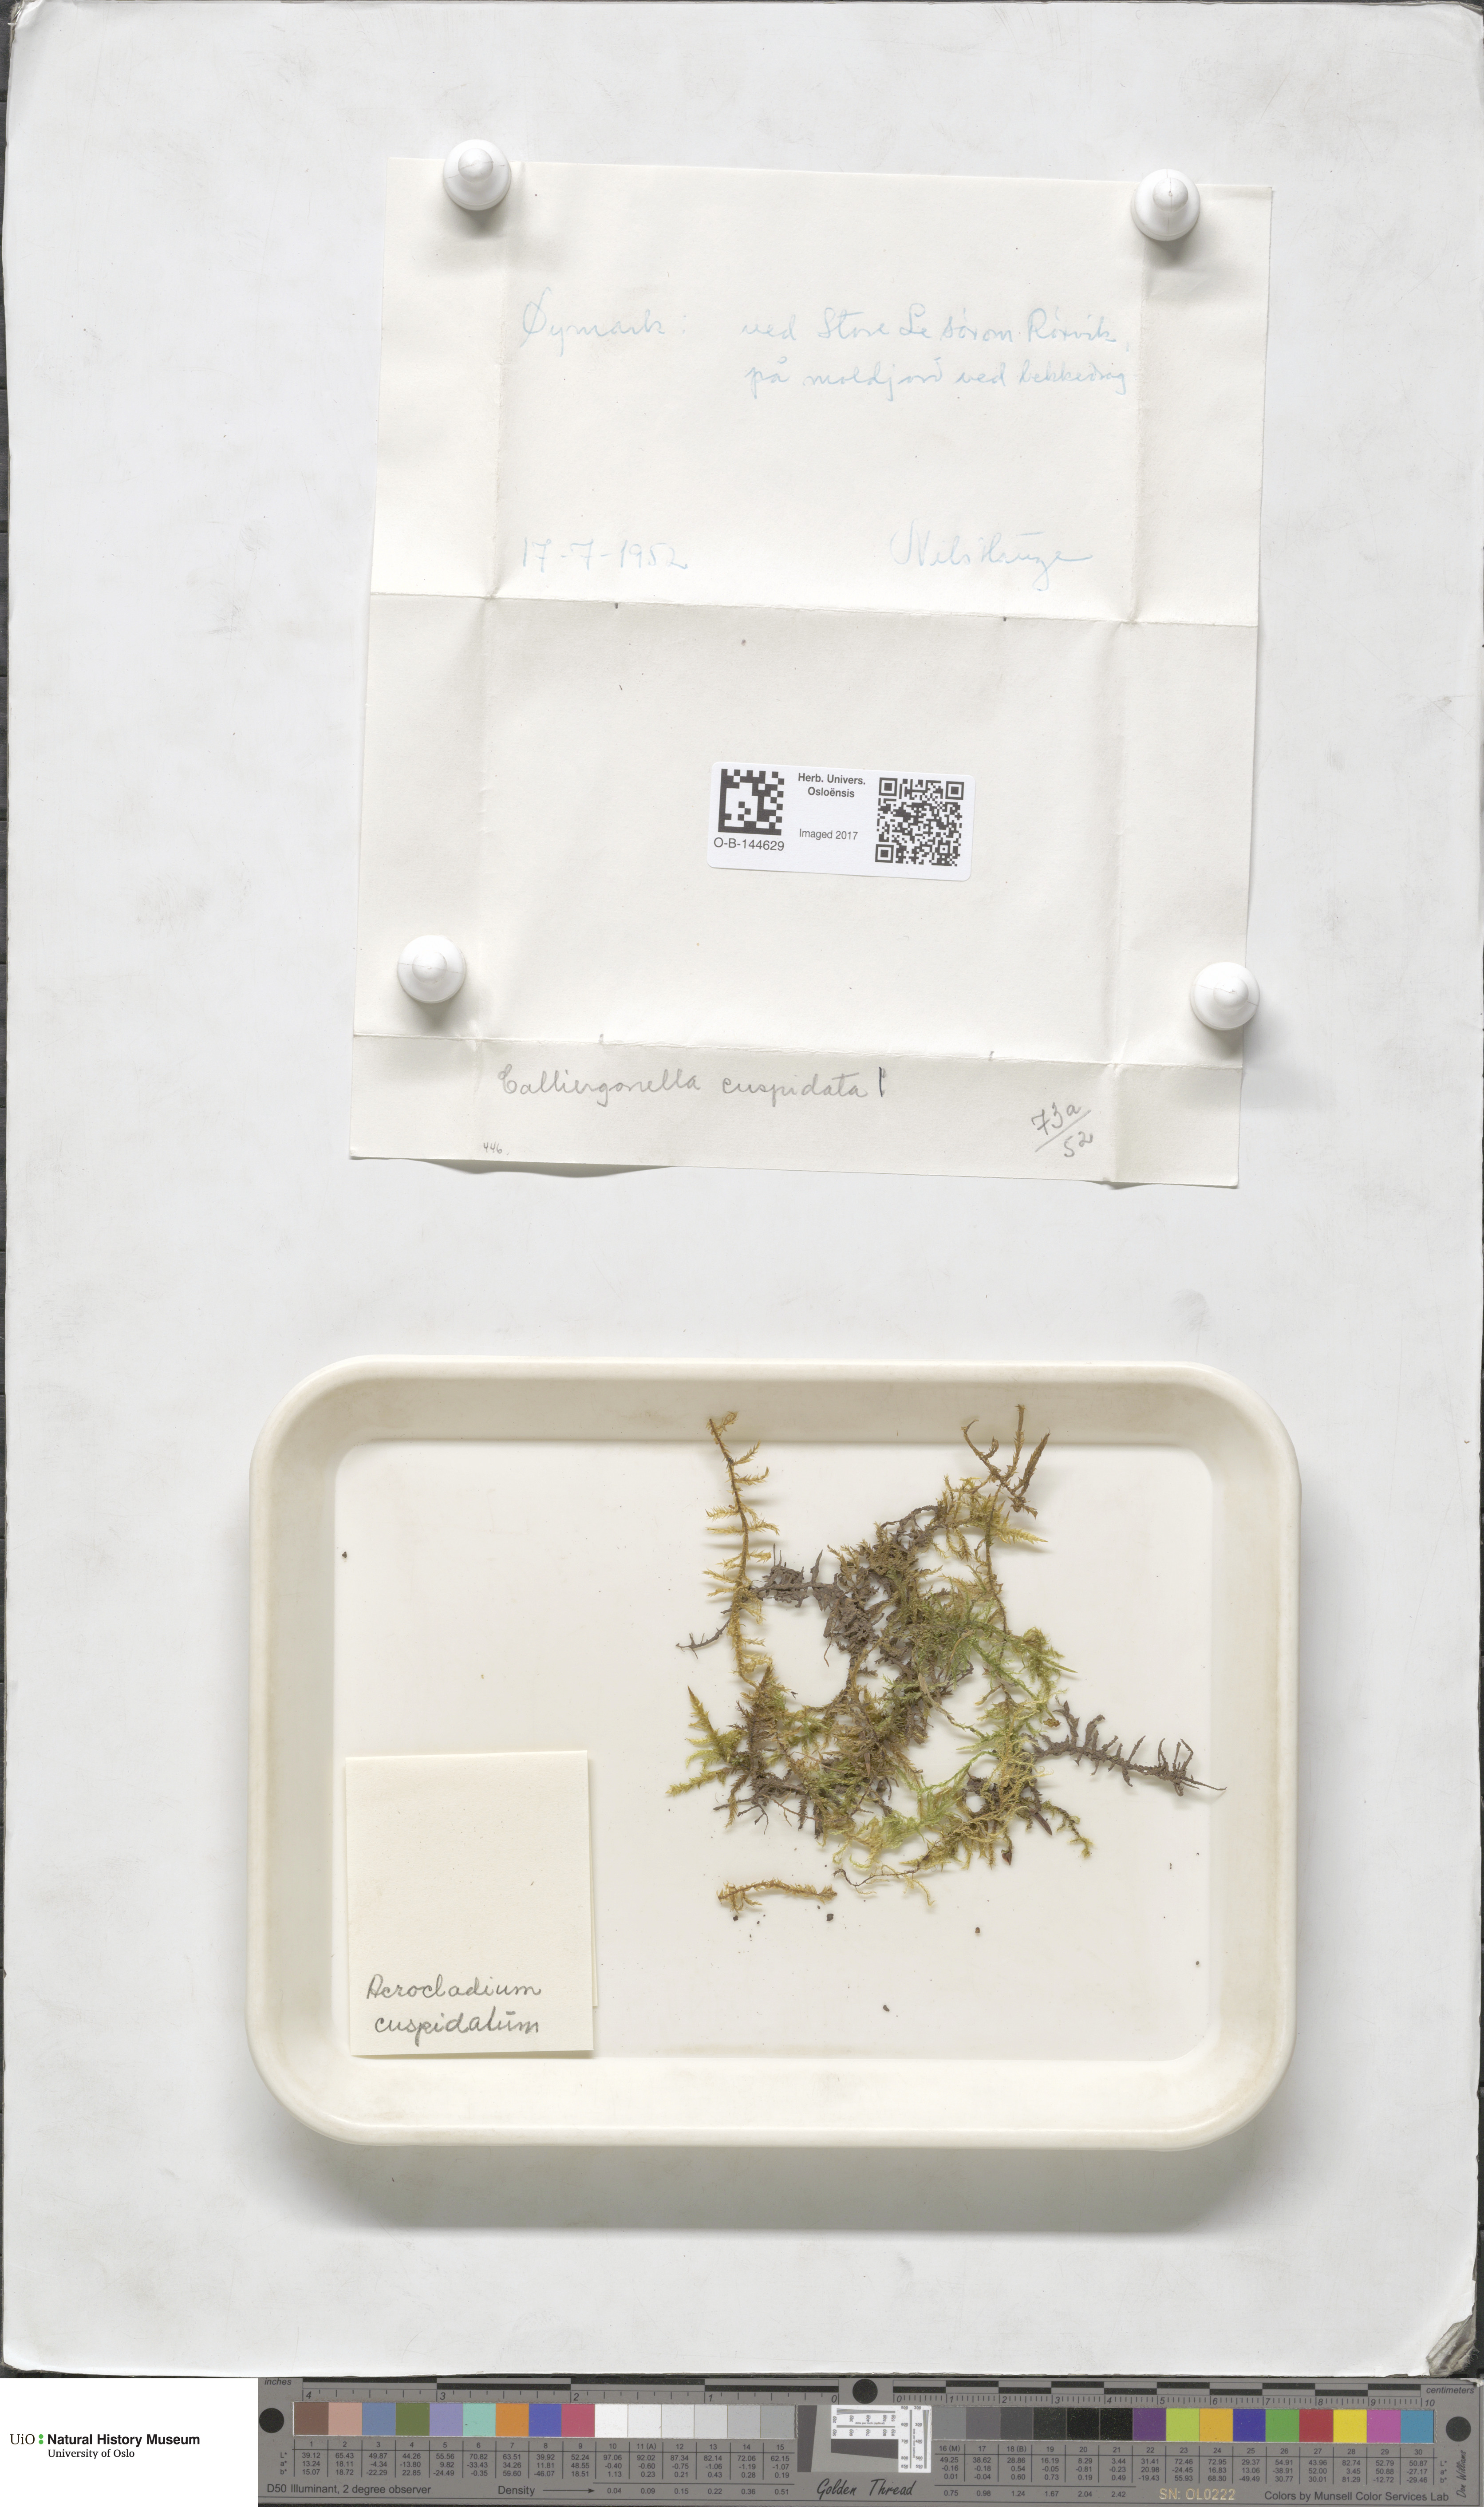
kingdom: Plantae
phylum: Bryophyta
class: Bryopsida
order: Hypnales
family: Pylaisiaceae
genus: Calliergonella
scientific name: Calliergonella cuspidata
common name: Common large wetland moss
